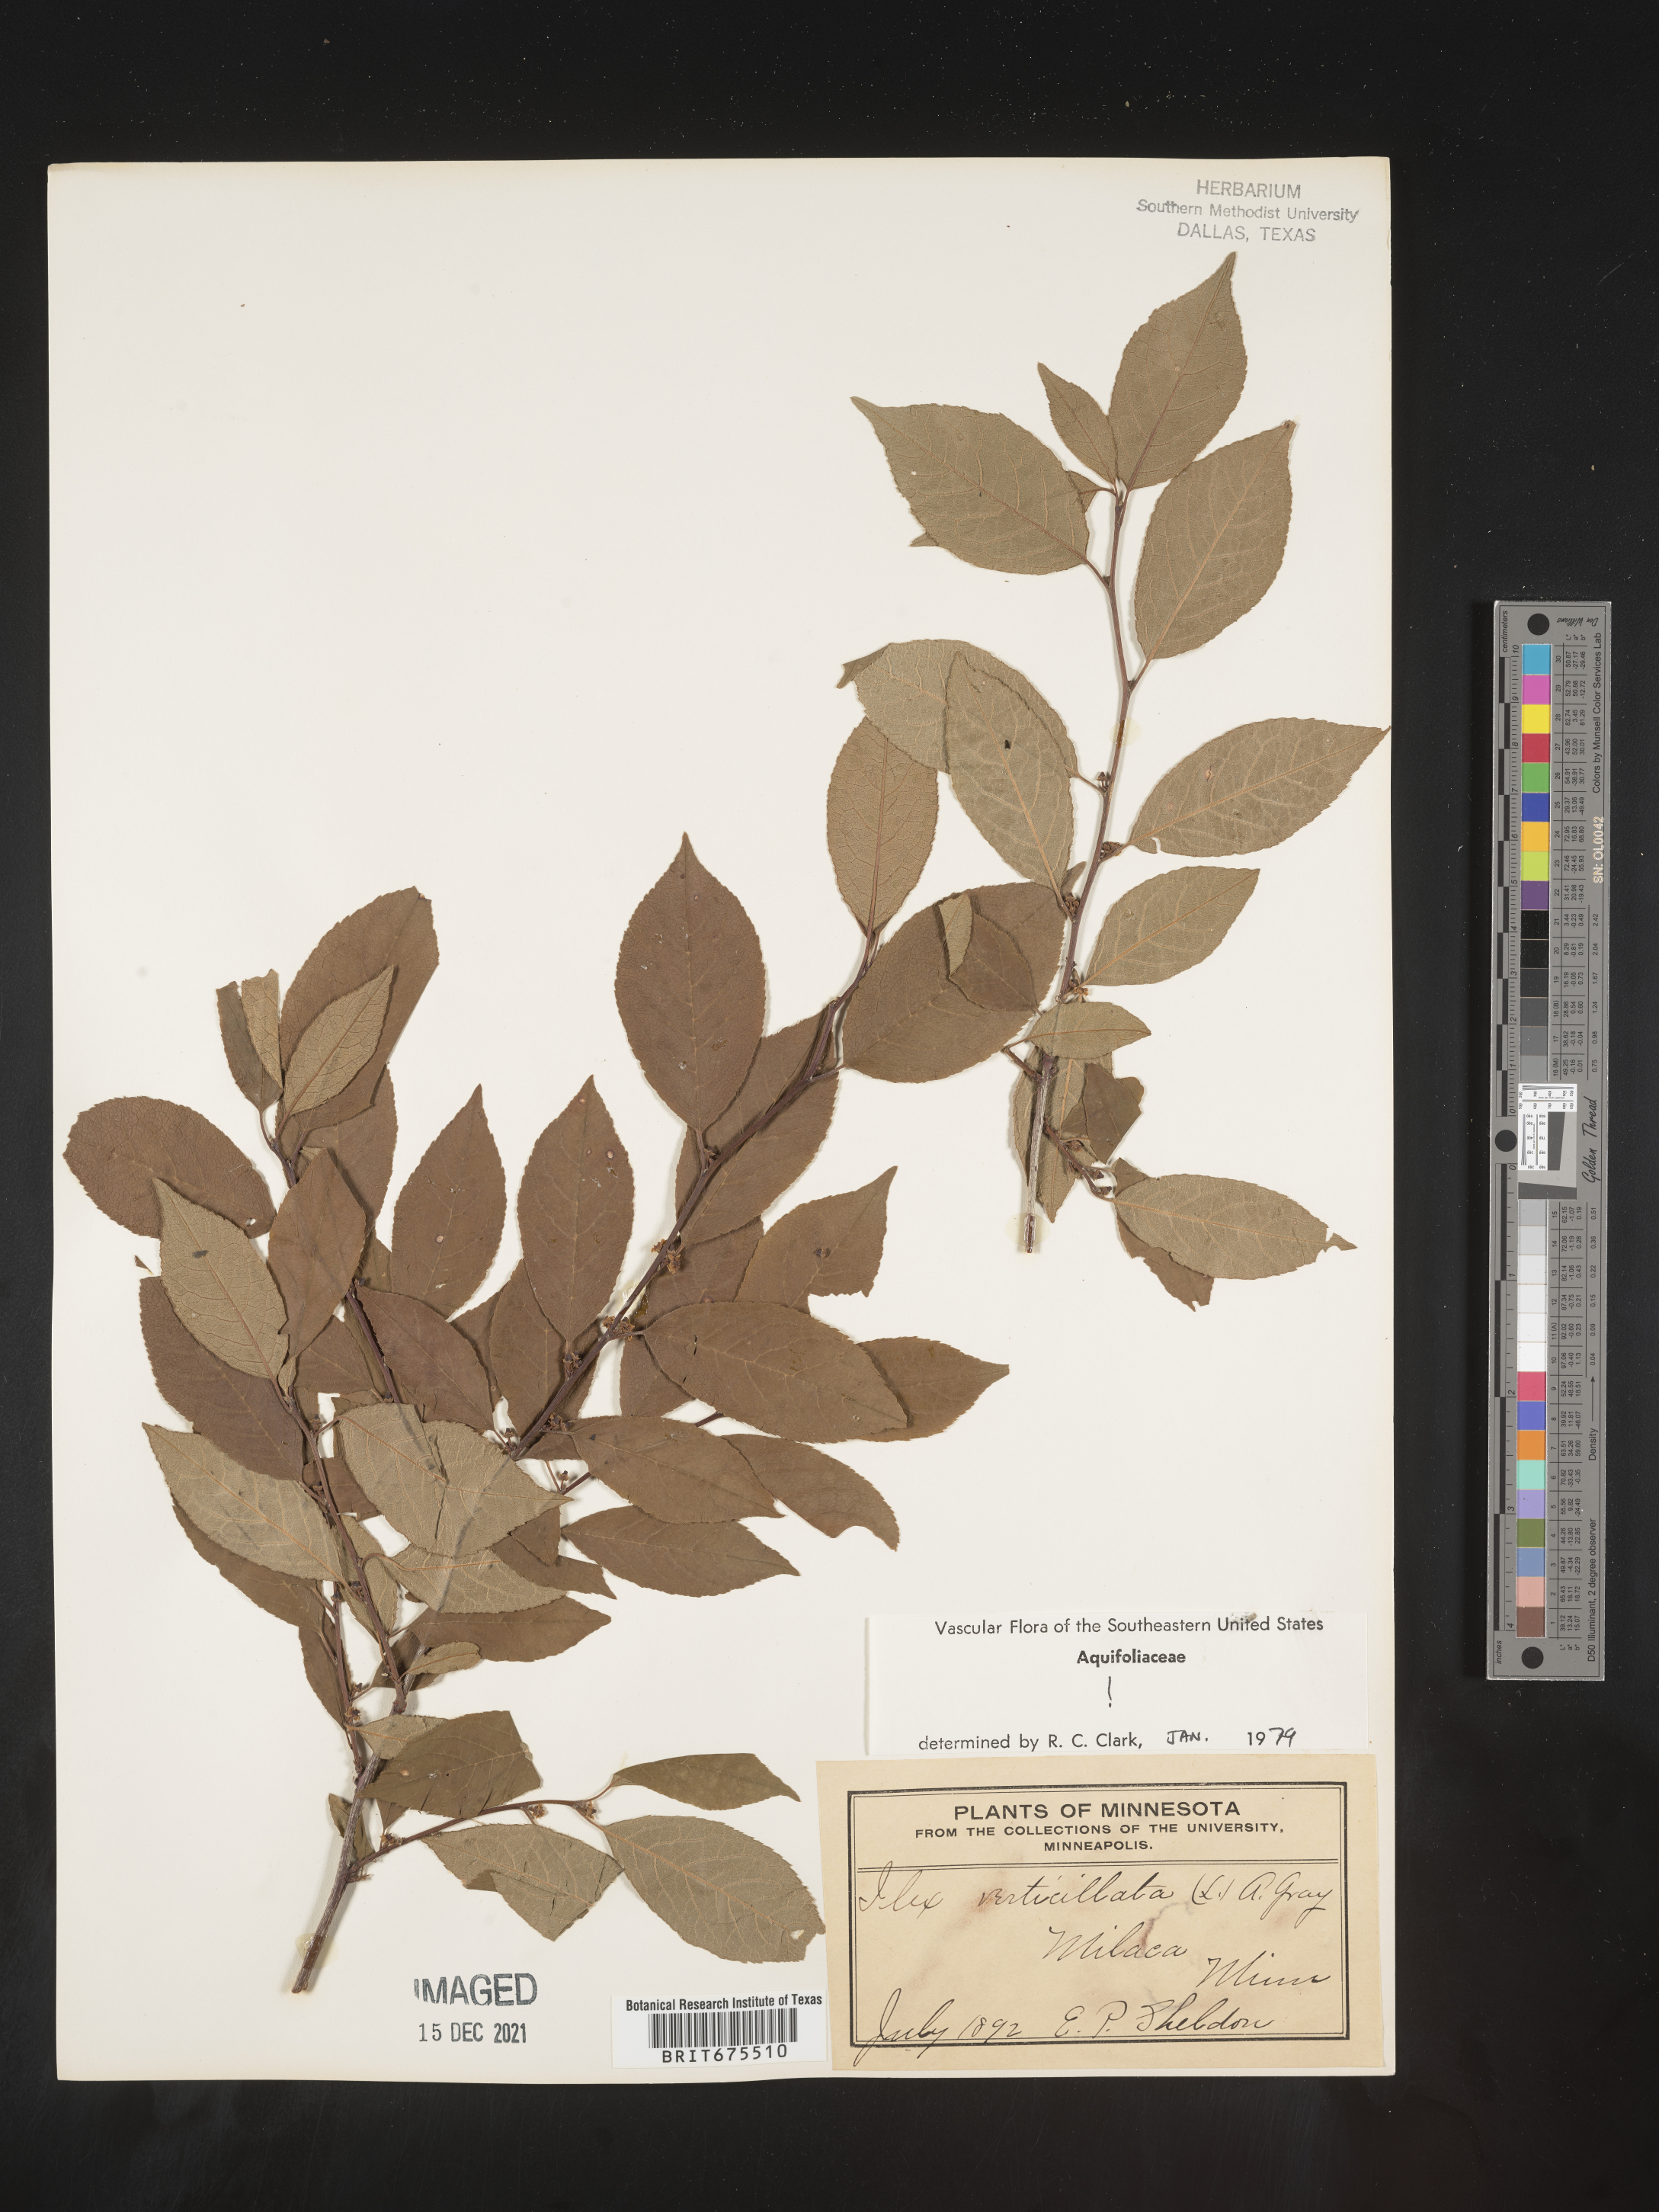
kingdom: Plantae
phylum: Tracheophyta
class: Magnoliopsida
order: Aquifoliales
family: Aquifoliaceae
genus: Ilex
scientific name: Ilex verticillata
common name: Virginia winterberry
